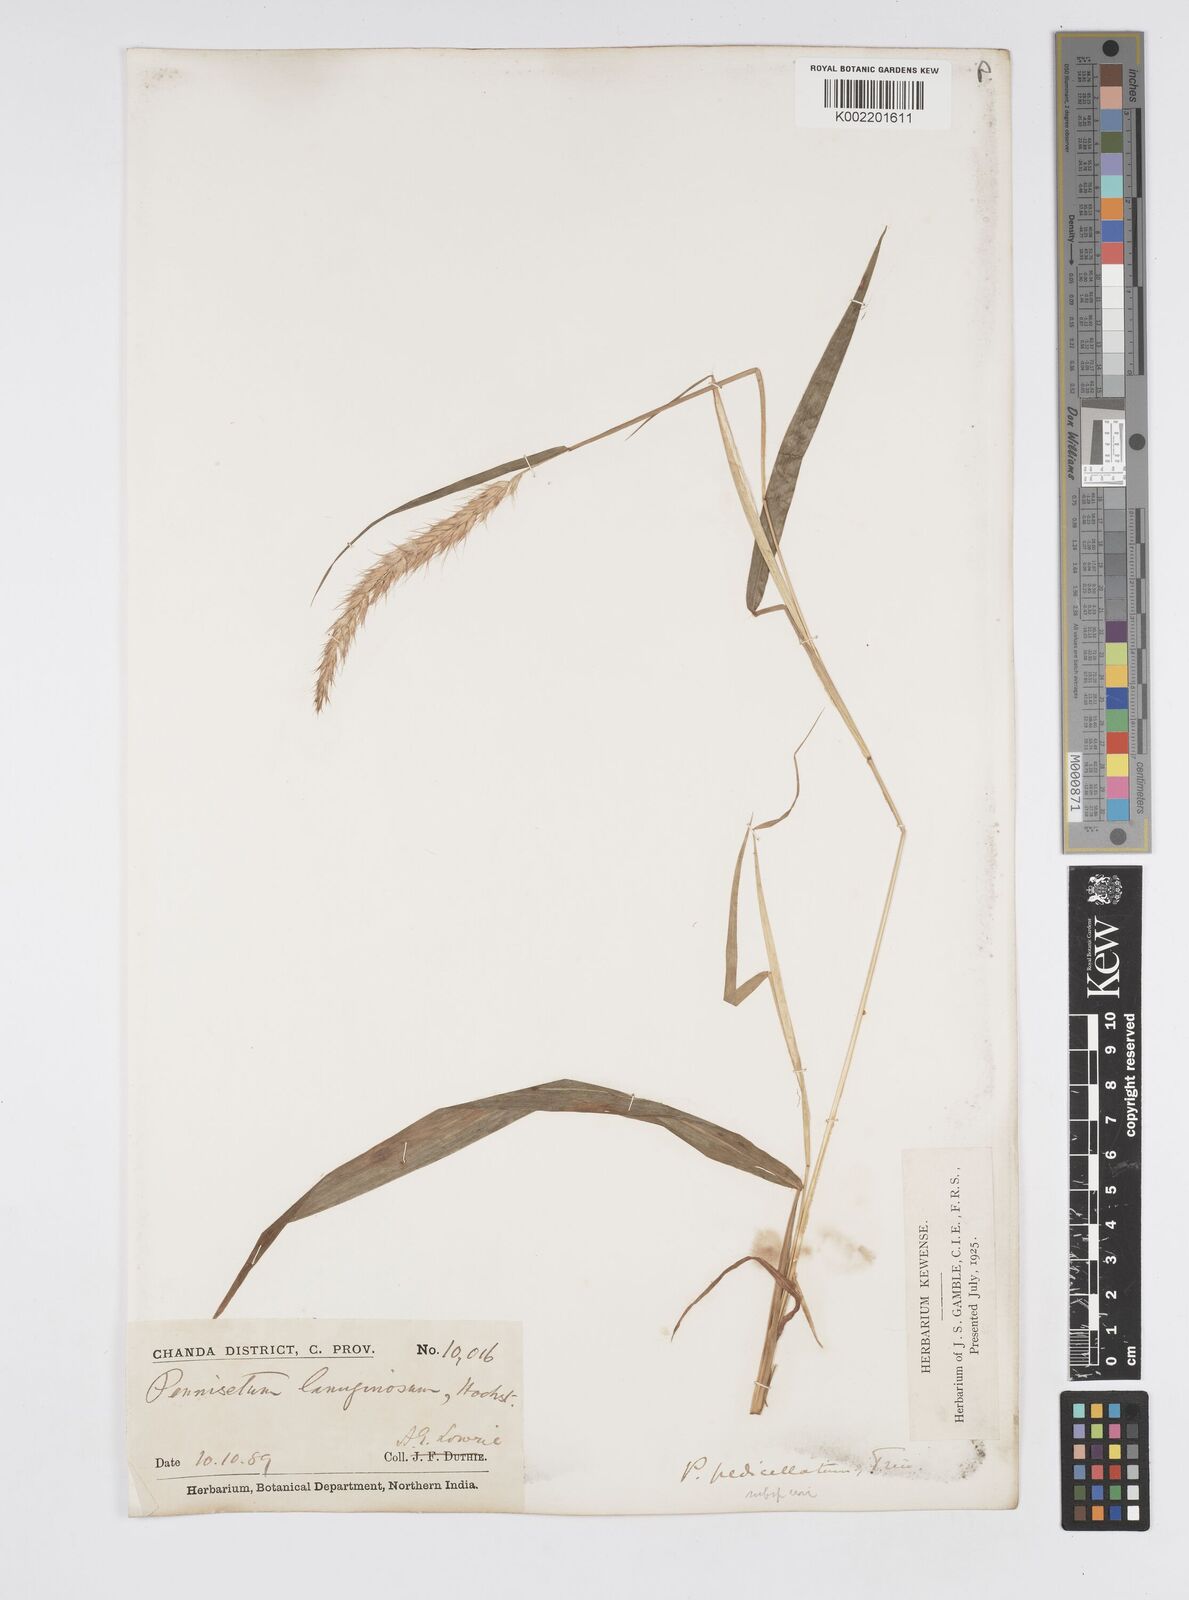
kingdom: Plantae
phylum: Tracheophyta
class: Liliopsida
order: Poales
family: Poaceae
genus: Cenchrus
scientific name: Cenchrus pedicellatus
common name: Hairy fountain grass
